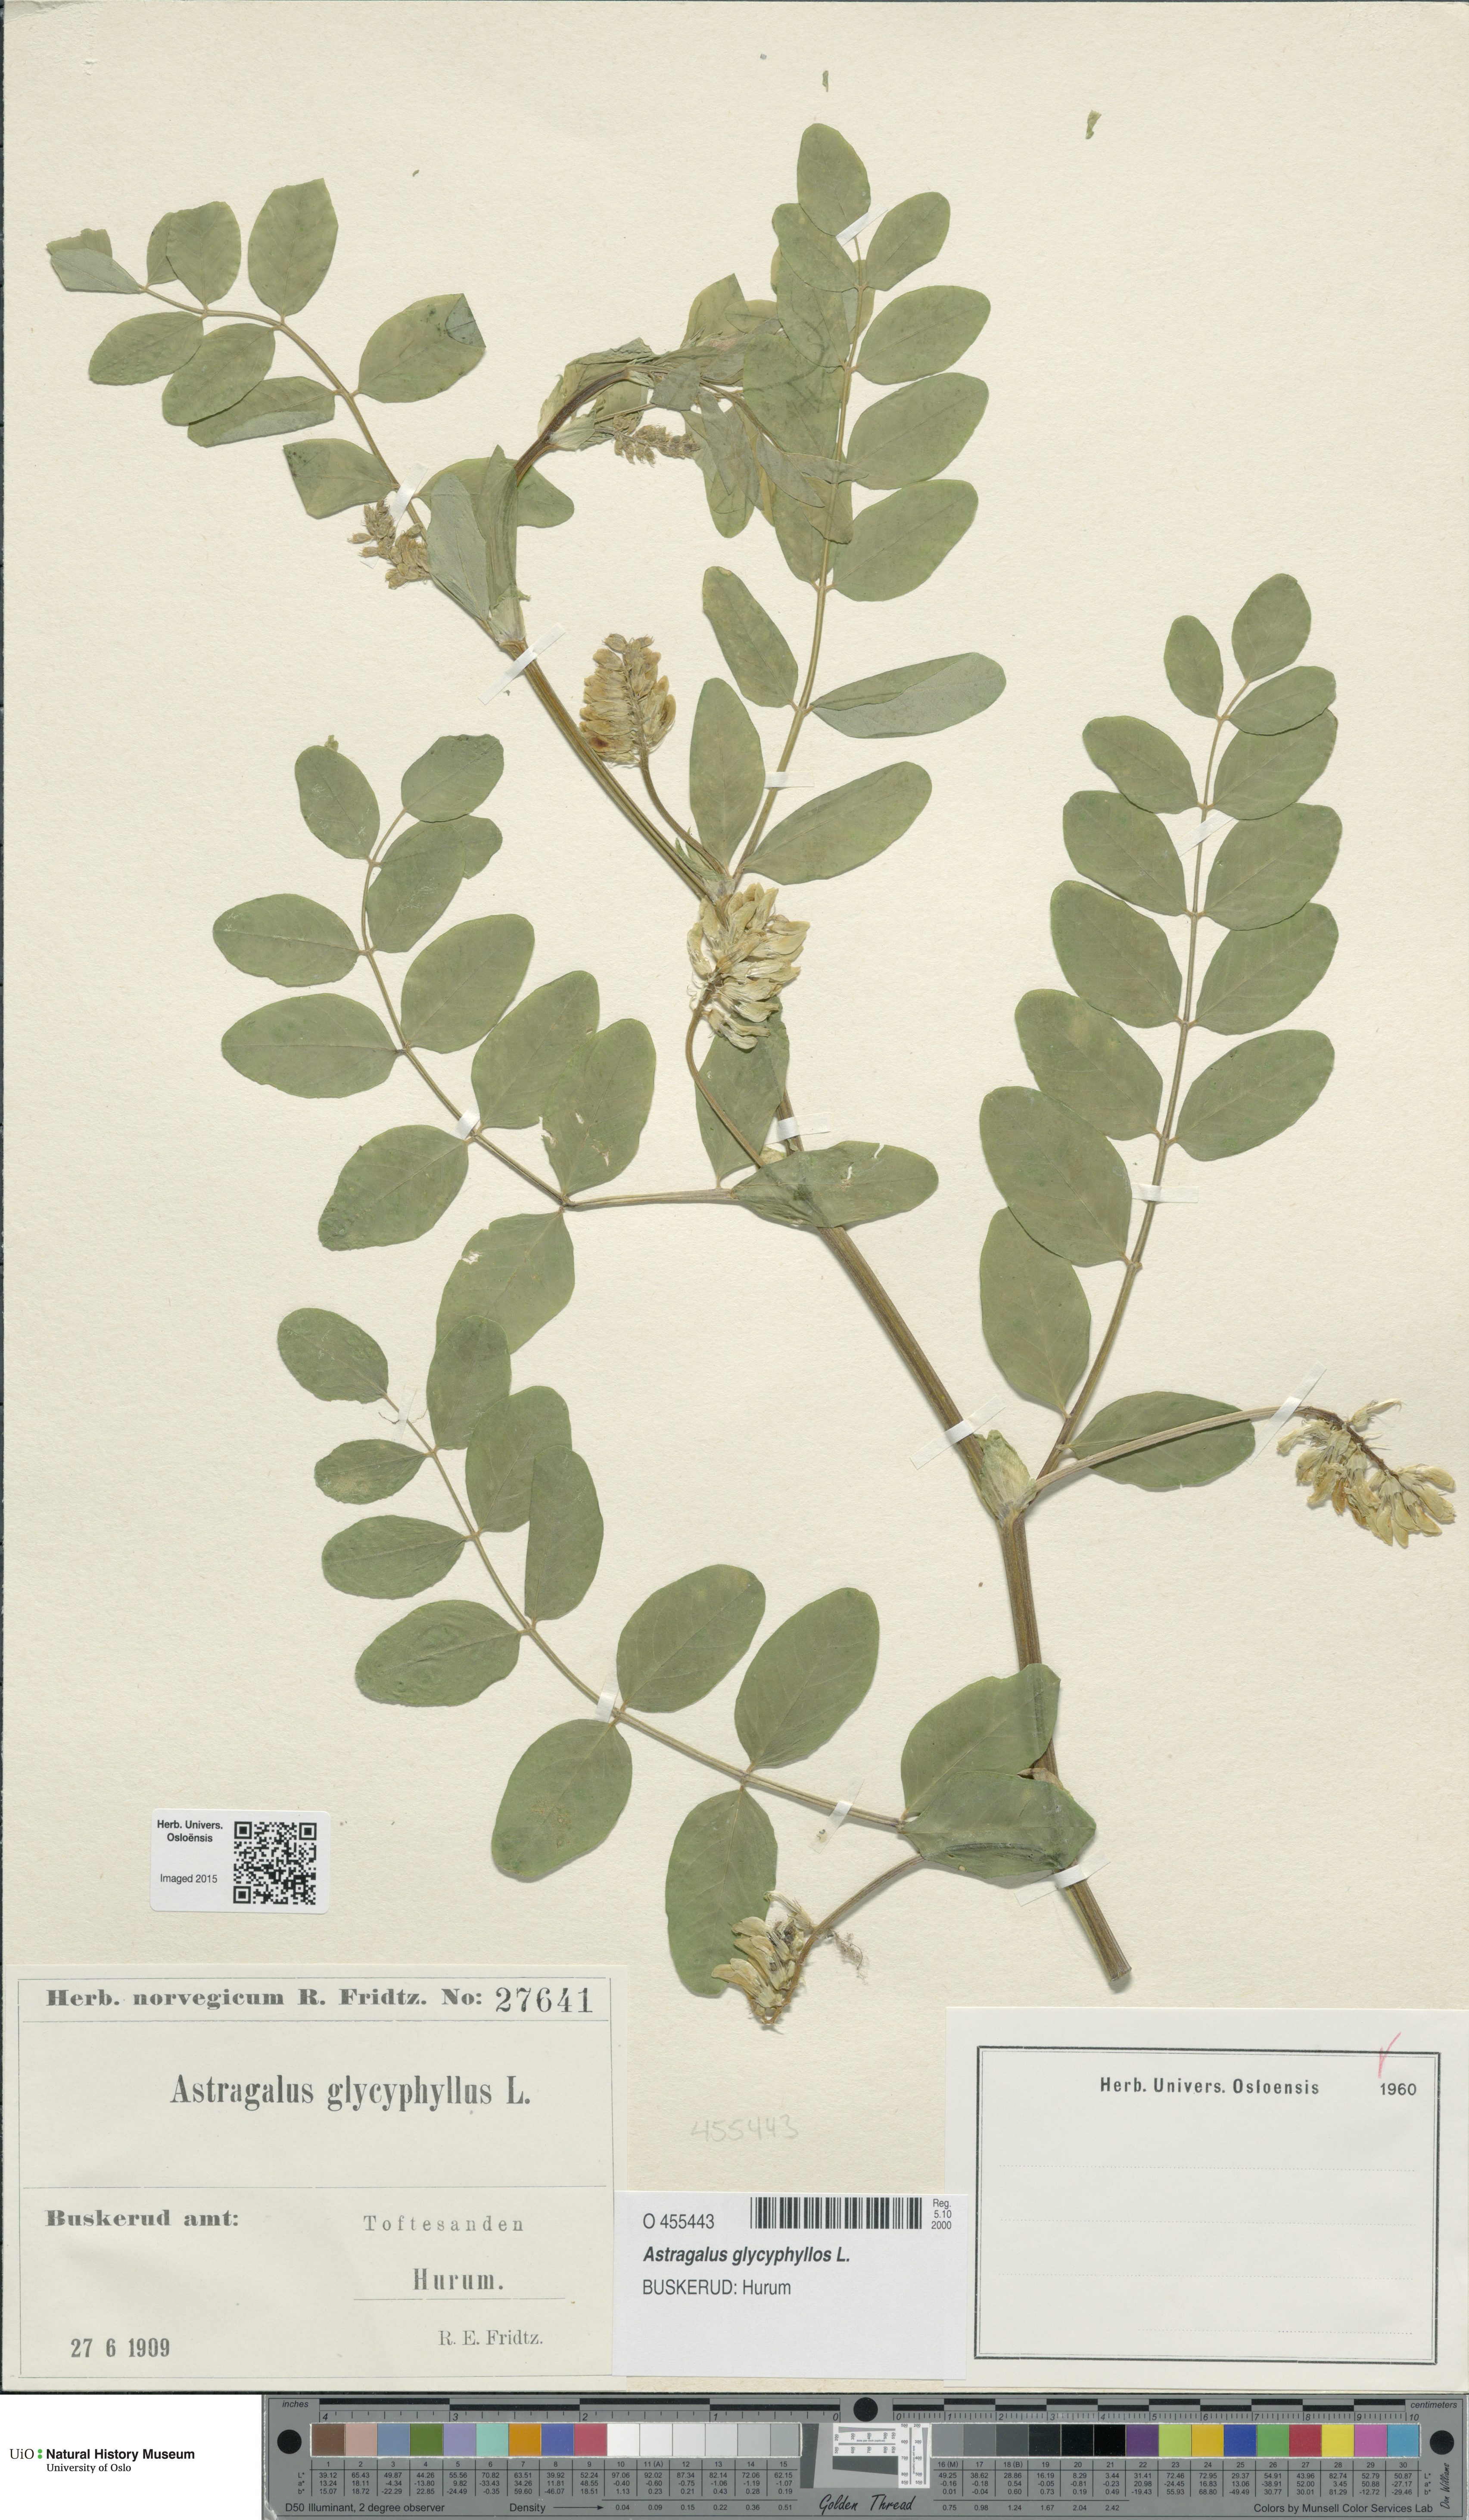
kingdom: Plantae
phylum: Tracheophyta
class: Magnoliopsida
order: Fabales
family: Fabaceae
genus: Astragalus
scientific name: Astragalus glycyphyllos
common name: Wild liquorice
